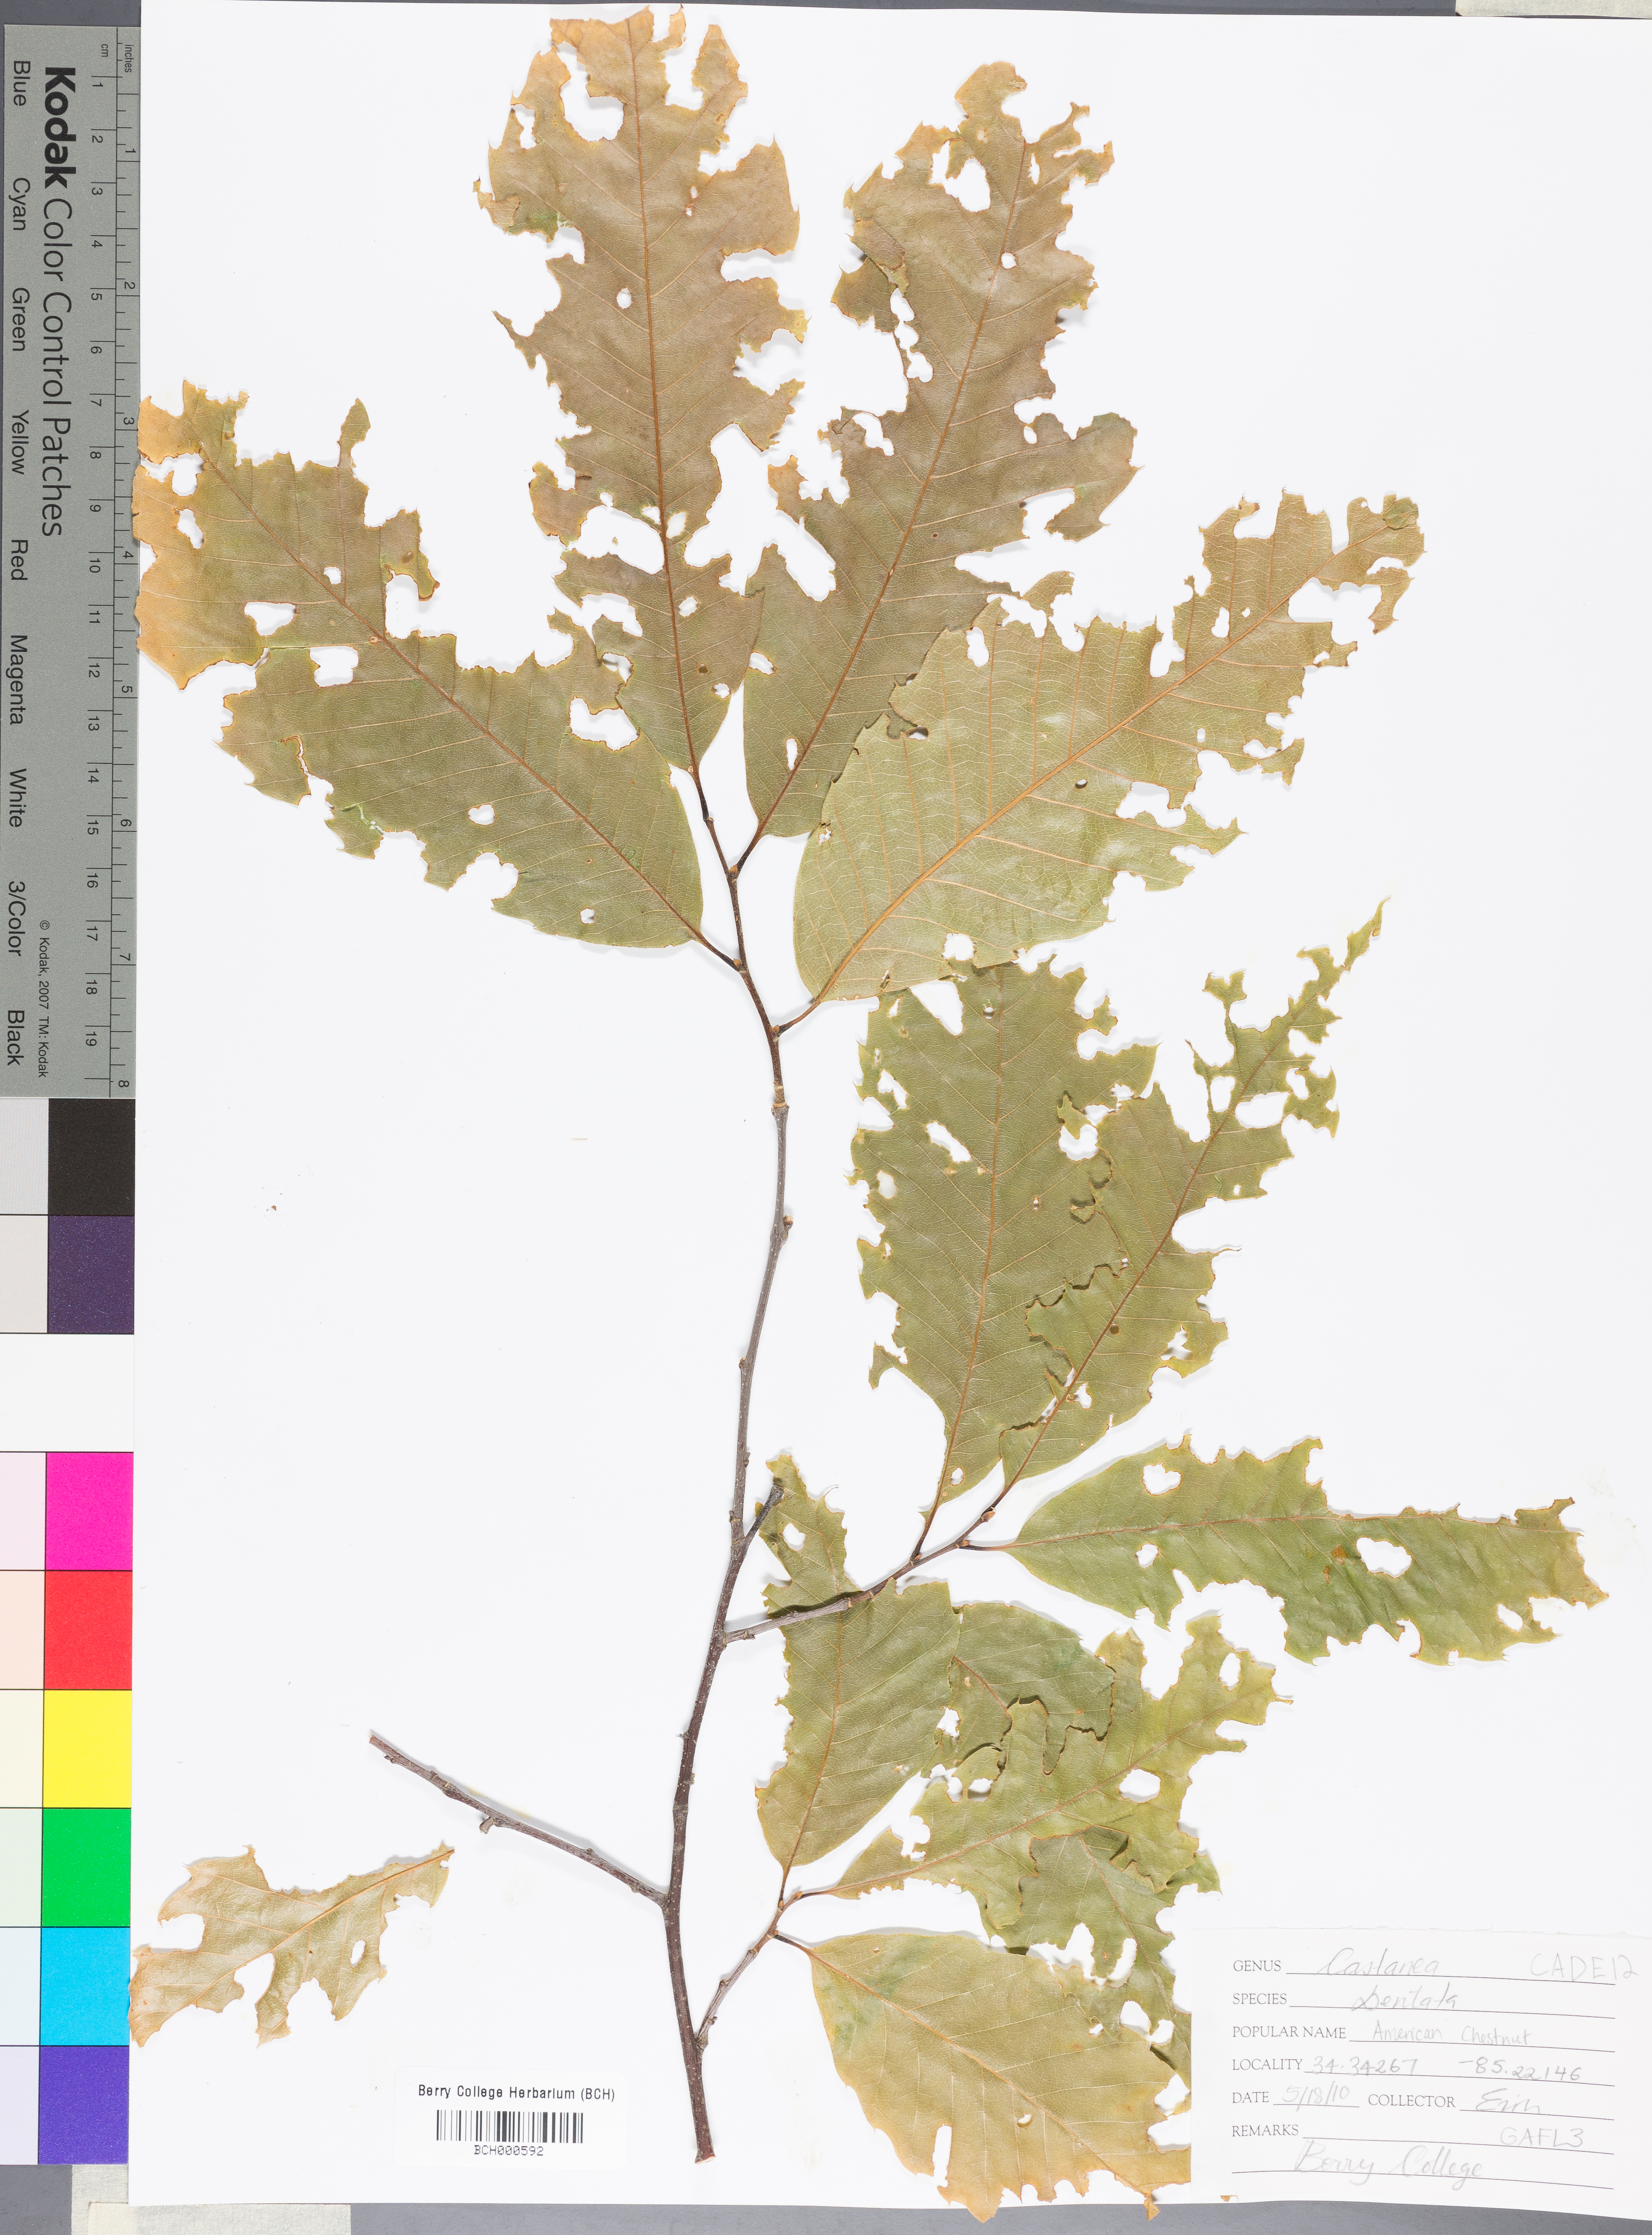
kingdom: Plantae
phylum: Tracheophyta
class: Magnoliopsida
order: Fagales
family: Fagaceae
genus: Castanea
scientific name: Castanea dentata
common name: American chestnut
